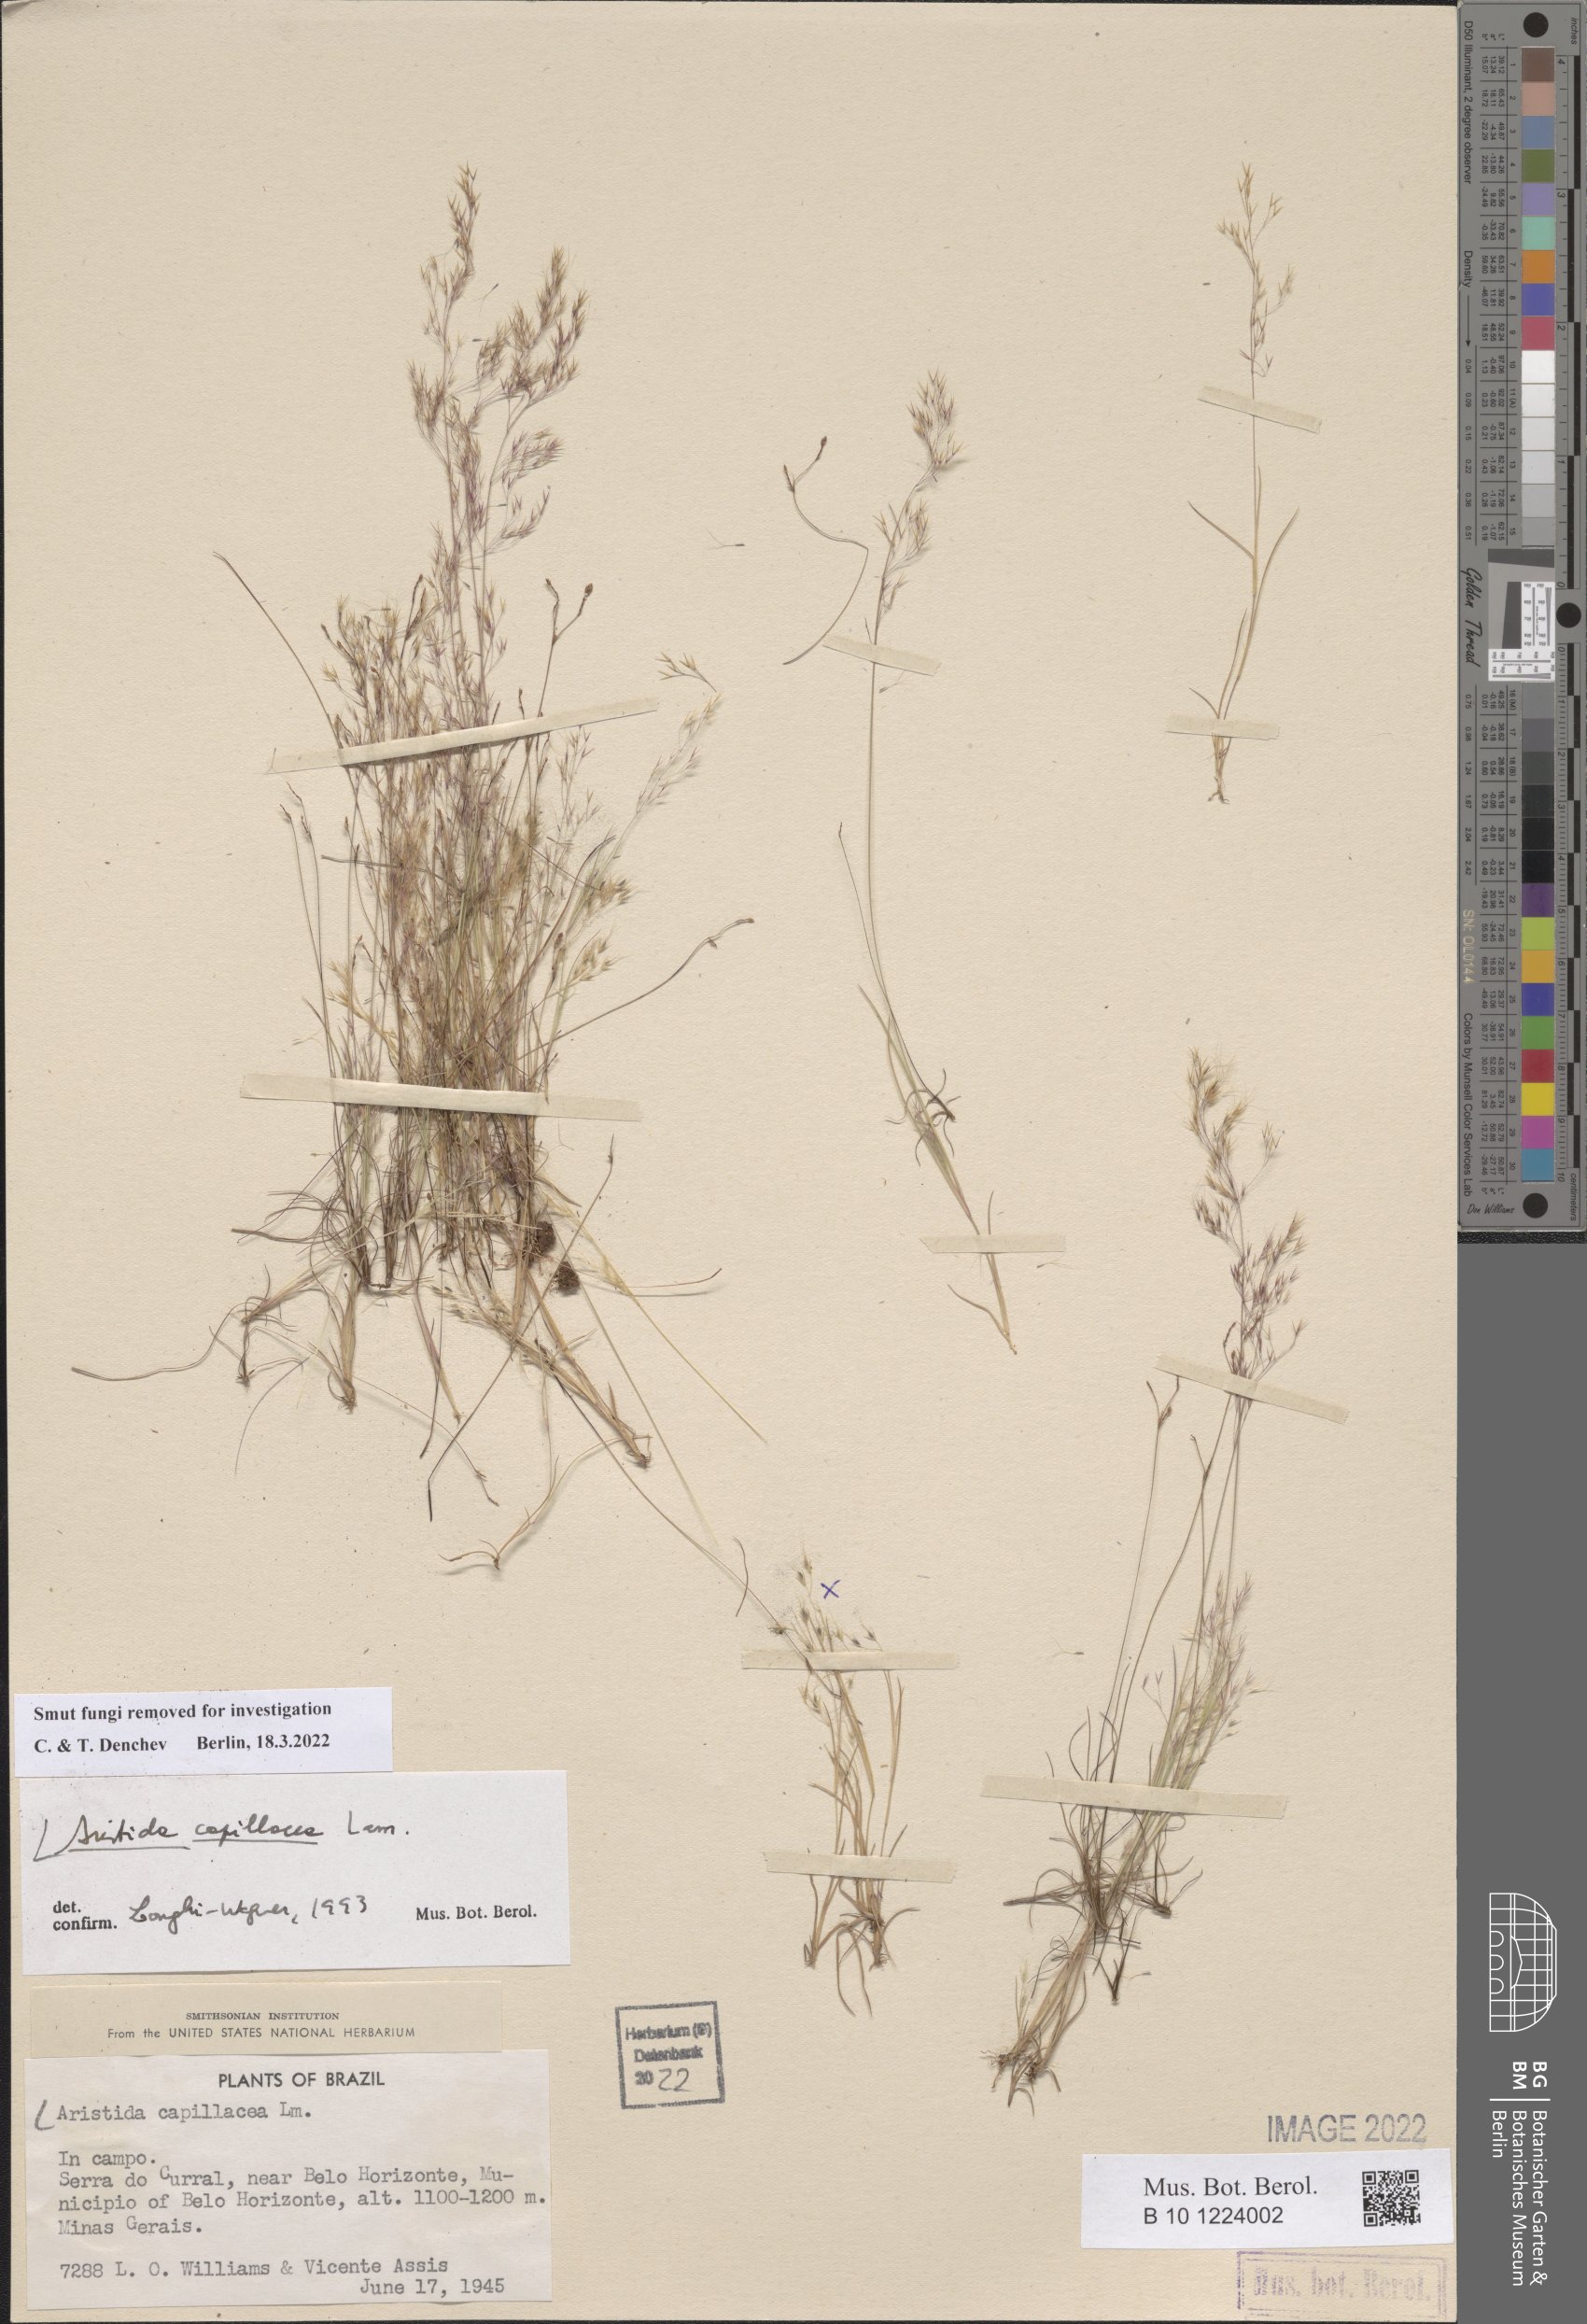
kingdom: Plantae
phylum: Tracheophyta
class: Liliopsida
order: Poales
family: Poaceae
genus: Aristida
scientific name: Aristida capillacea
